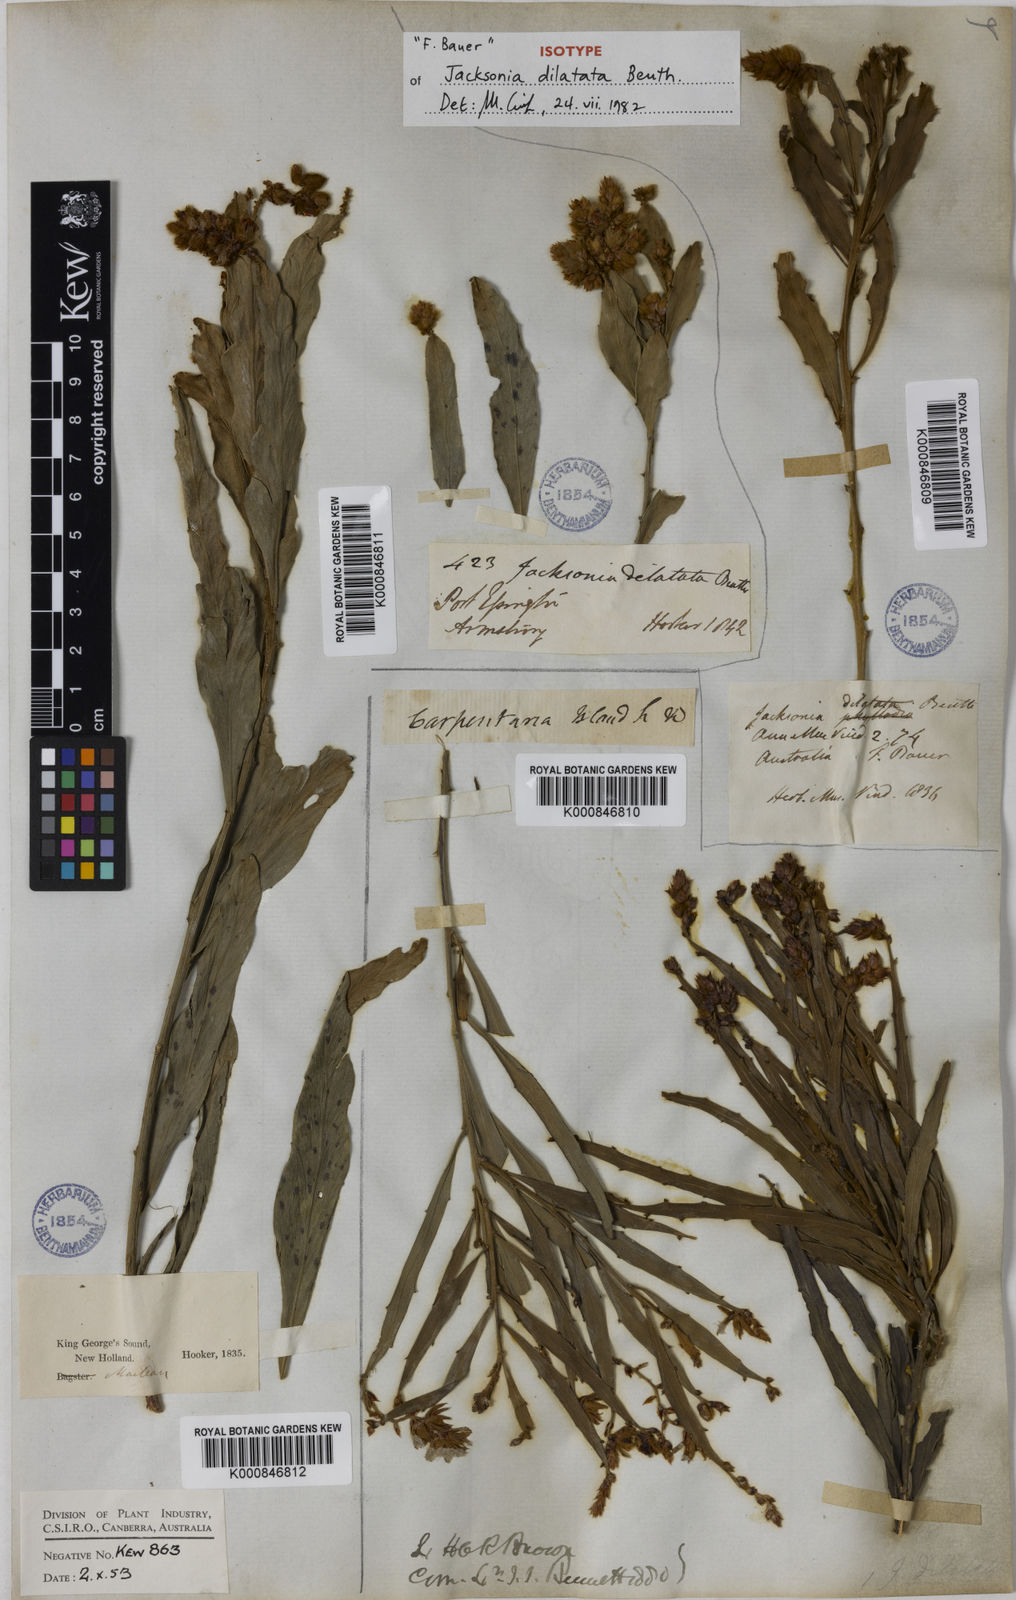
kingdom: Plantae
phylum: Tracheophyta
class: Magnoliopsida
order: Fabales
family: Fabaceae
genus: Jacksonia
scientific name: Jacksonia dilatata
